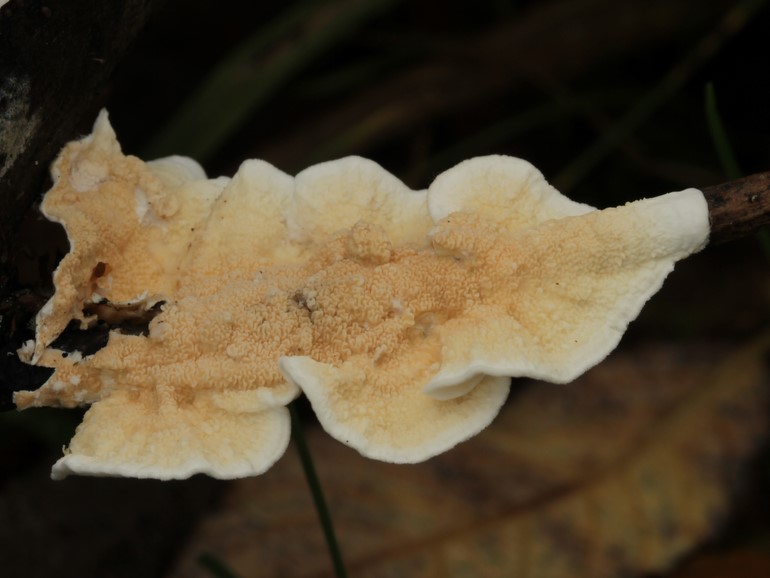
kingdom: Fungi
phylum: Basidiomycota
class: Agaricomycetes
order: Polyporales
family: Irpicaceae
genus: Byssomerulius
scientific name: Byssomerulius corium
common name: læder-åresvamp
